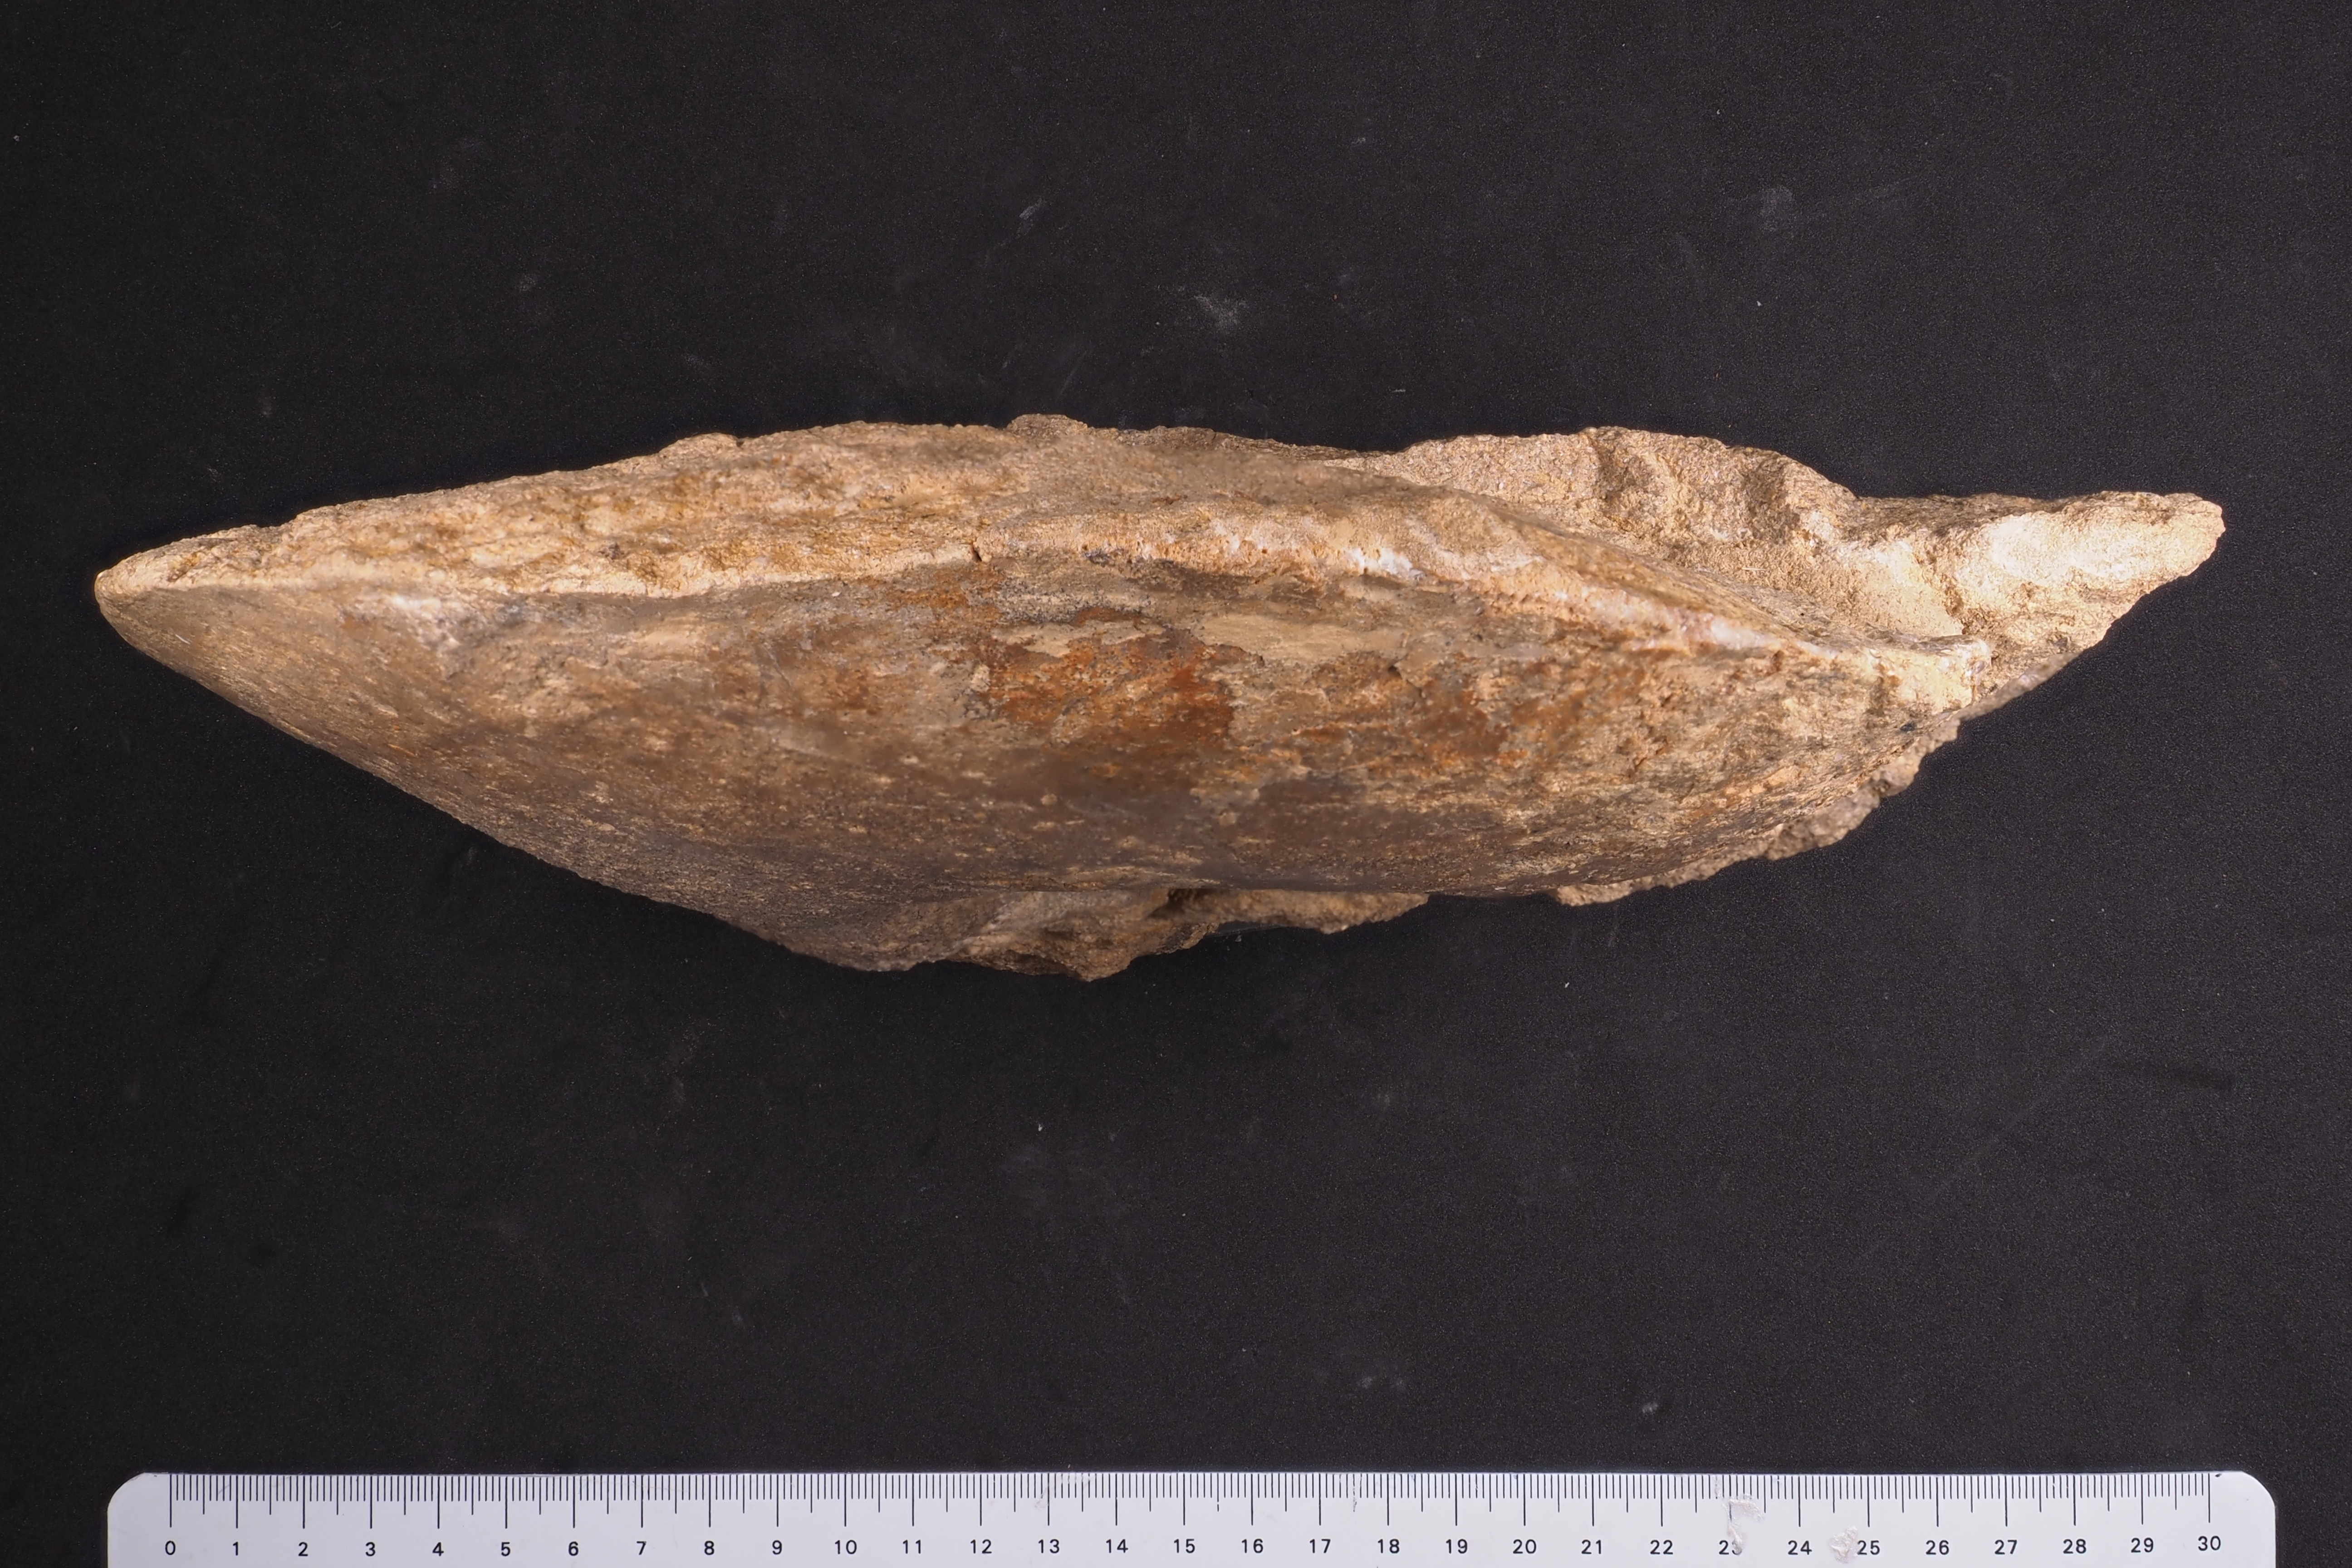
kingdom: Animalia
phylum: Mollusca
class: Cephalopoda
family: Sonniniidae
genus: Pseudoshirbuirnia
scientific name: Pseudoshirbuirnia
